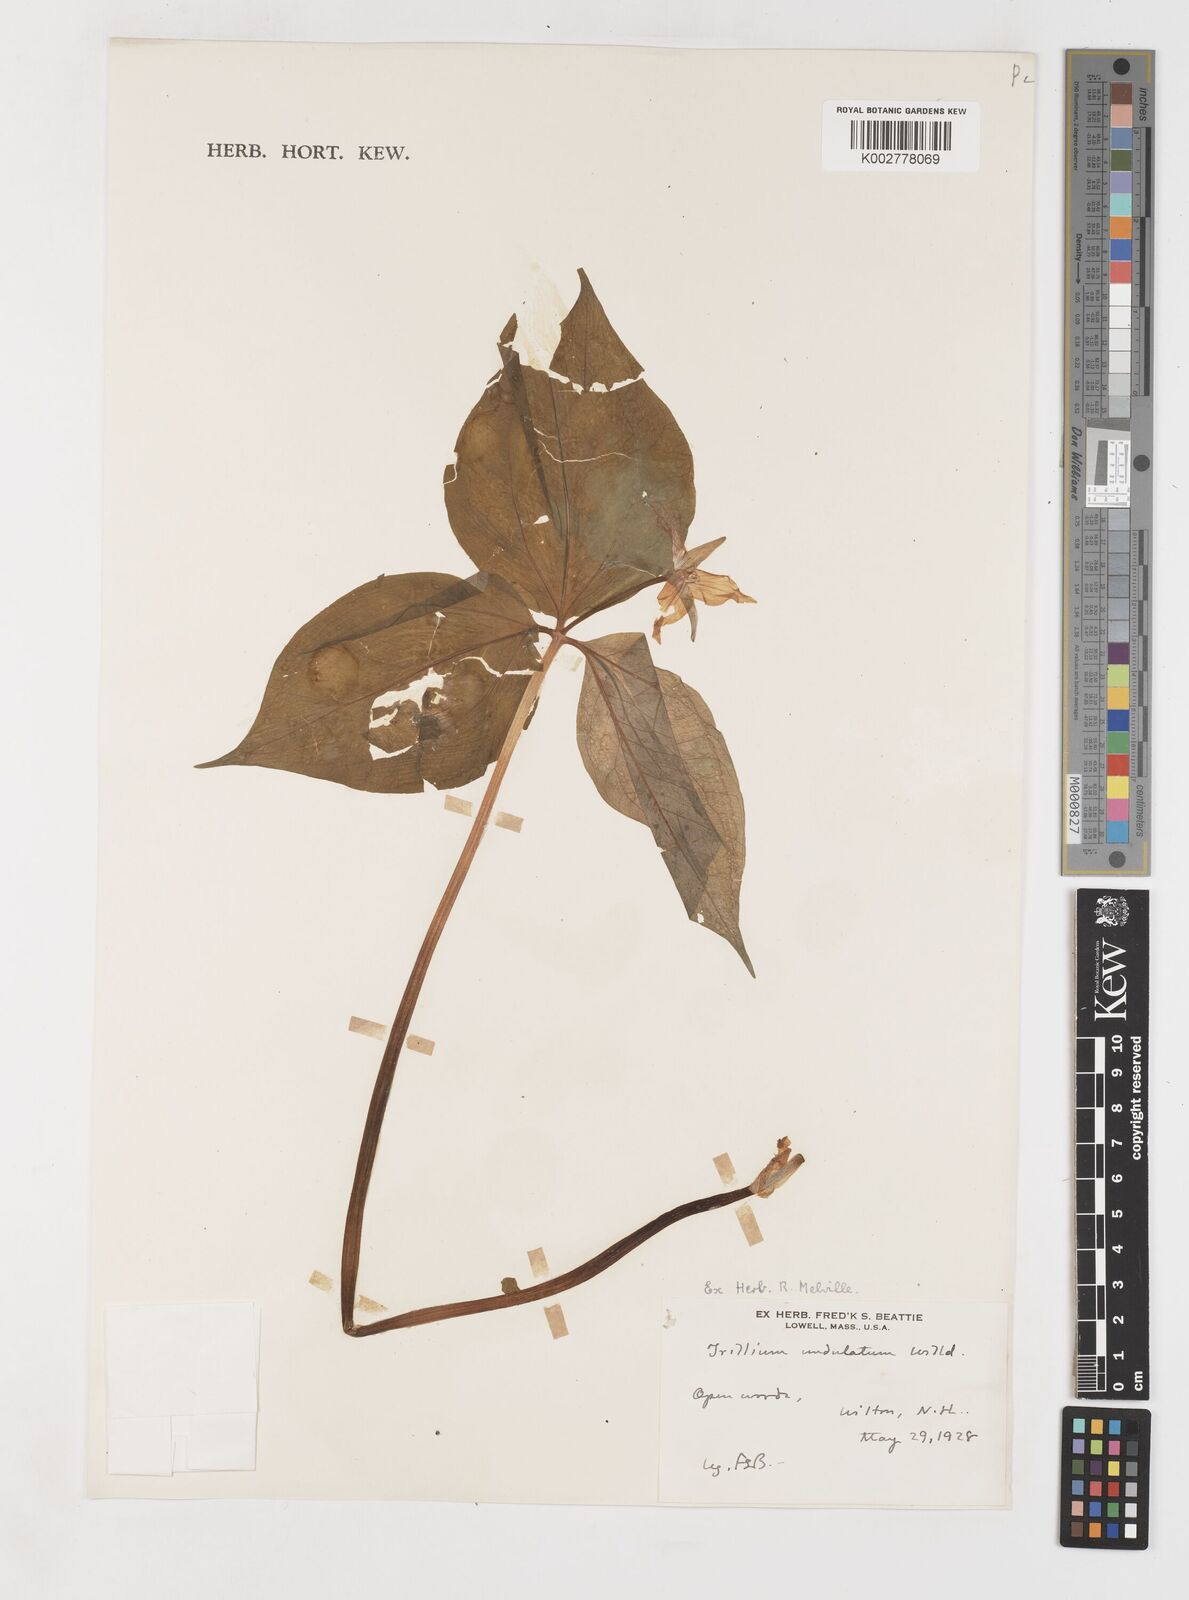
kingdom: Plantae
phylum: Tracheophyta
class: Liliopsida
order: Liliales
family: Melanthiaceae
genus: Trillium
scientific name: Trillium undulatum
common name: Paint trillium
